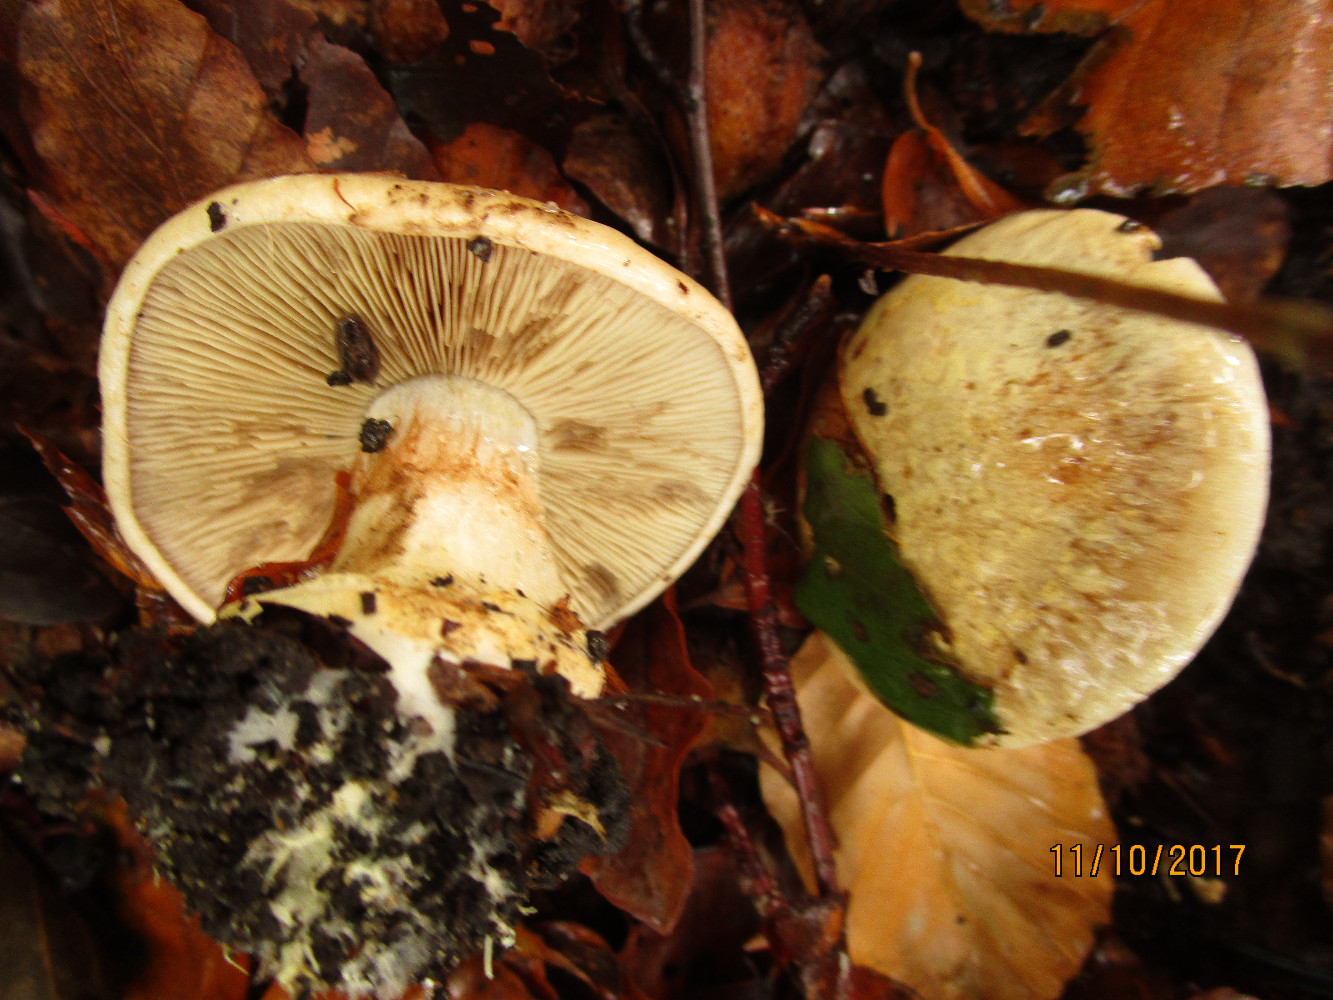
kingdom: Fungi
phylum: Basidiomycota
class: Agaricomycetes
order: Agaricales
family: Cortinariaceae
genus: Cortinarius
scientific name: Cortinarius foetens
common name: stribet slørhat
